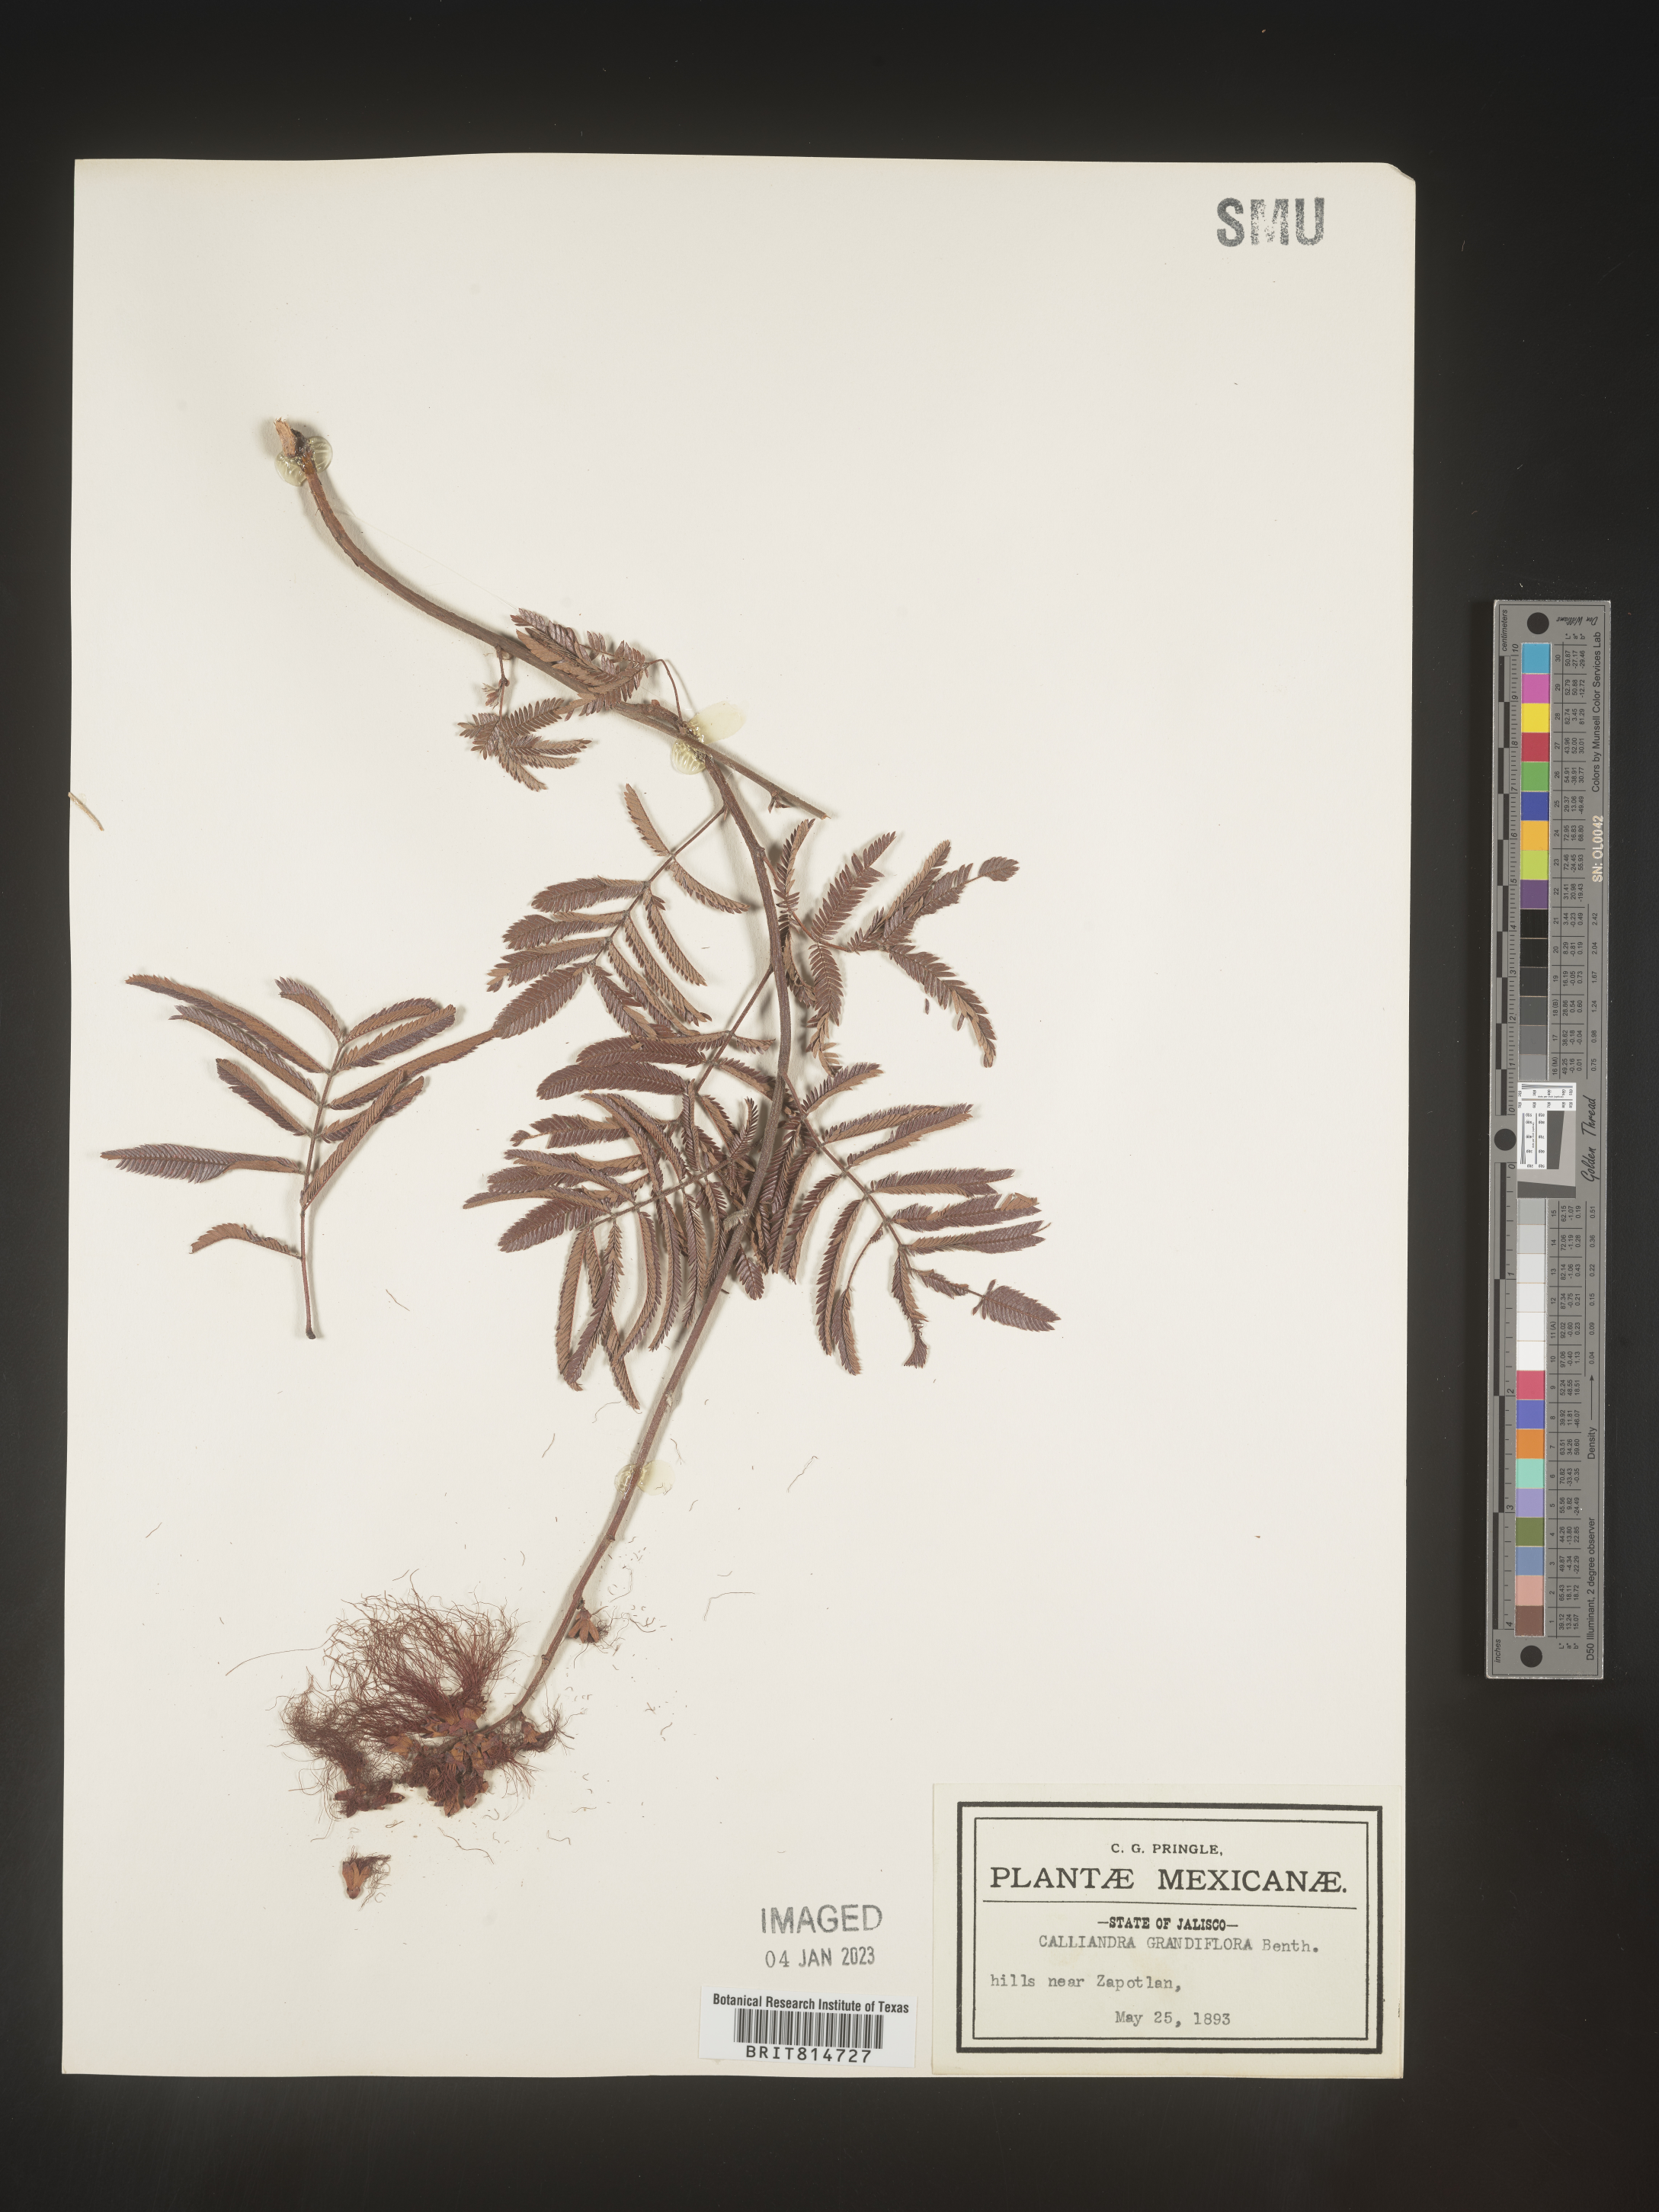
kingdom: Plantae
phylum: Tracheophyta
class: Magnoliopsida
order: Fabales
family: Fabaceae
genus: Calliandra
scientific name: Calliandra
